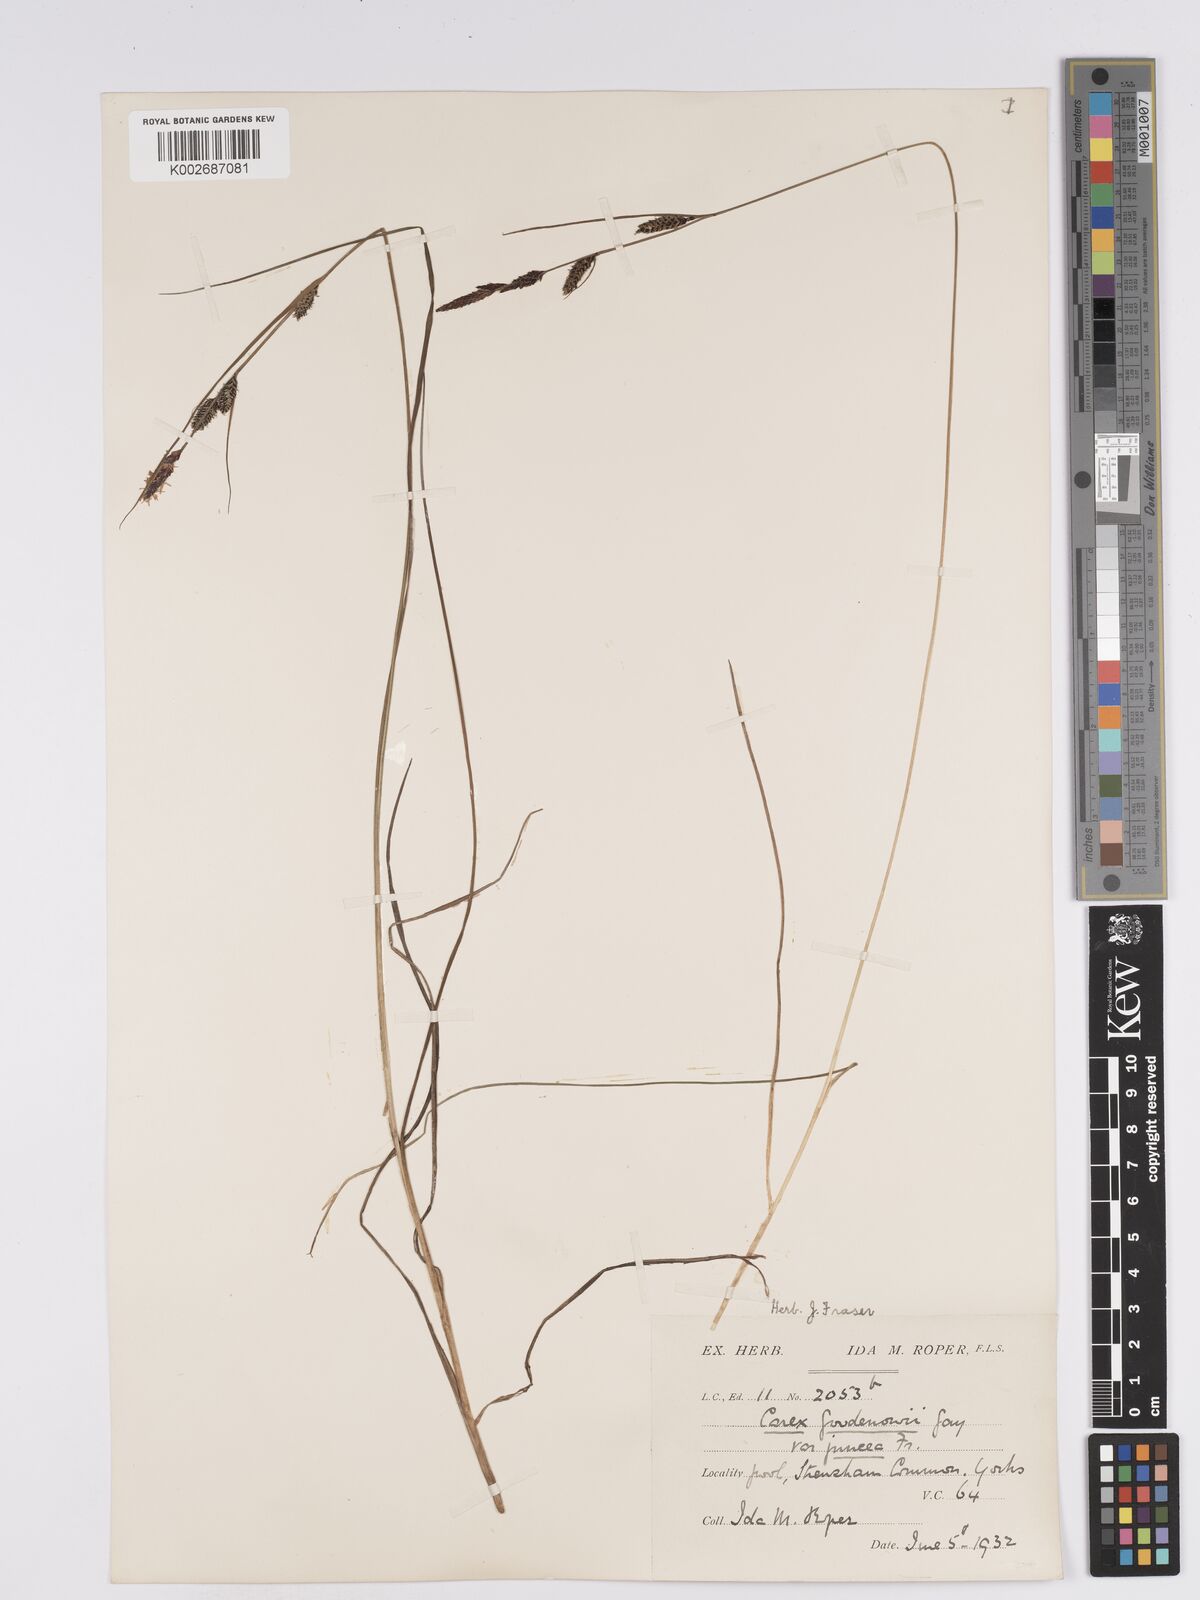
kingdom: Plantae
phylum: Tracheophyta
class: Liliopsida
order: Poales
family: Cyperaceae
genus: Carex
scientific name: Carex nigra
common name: Common sedge
